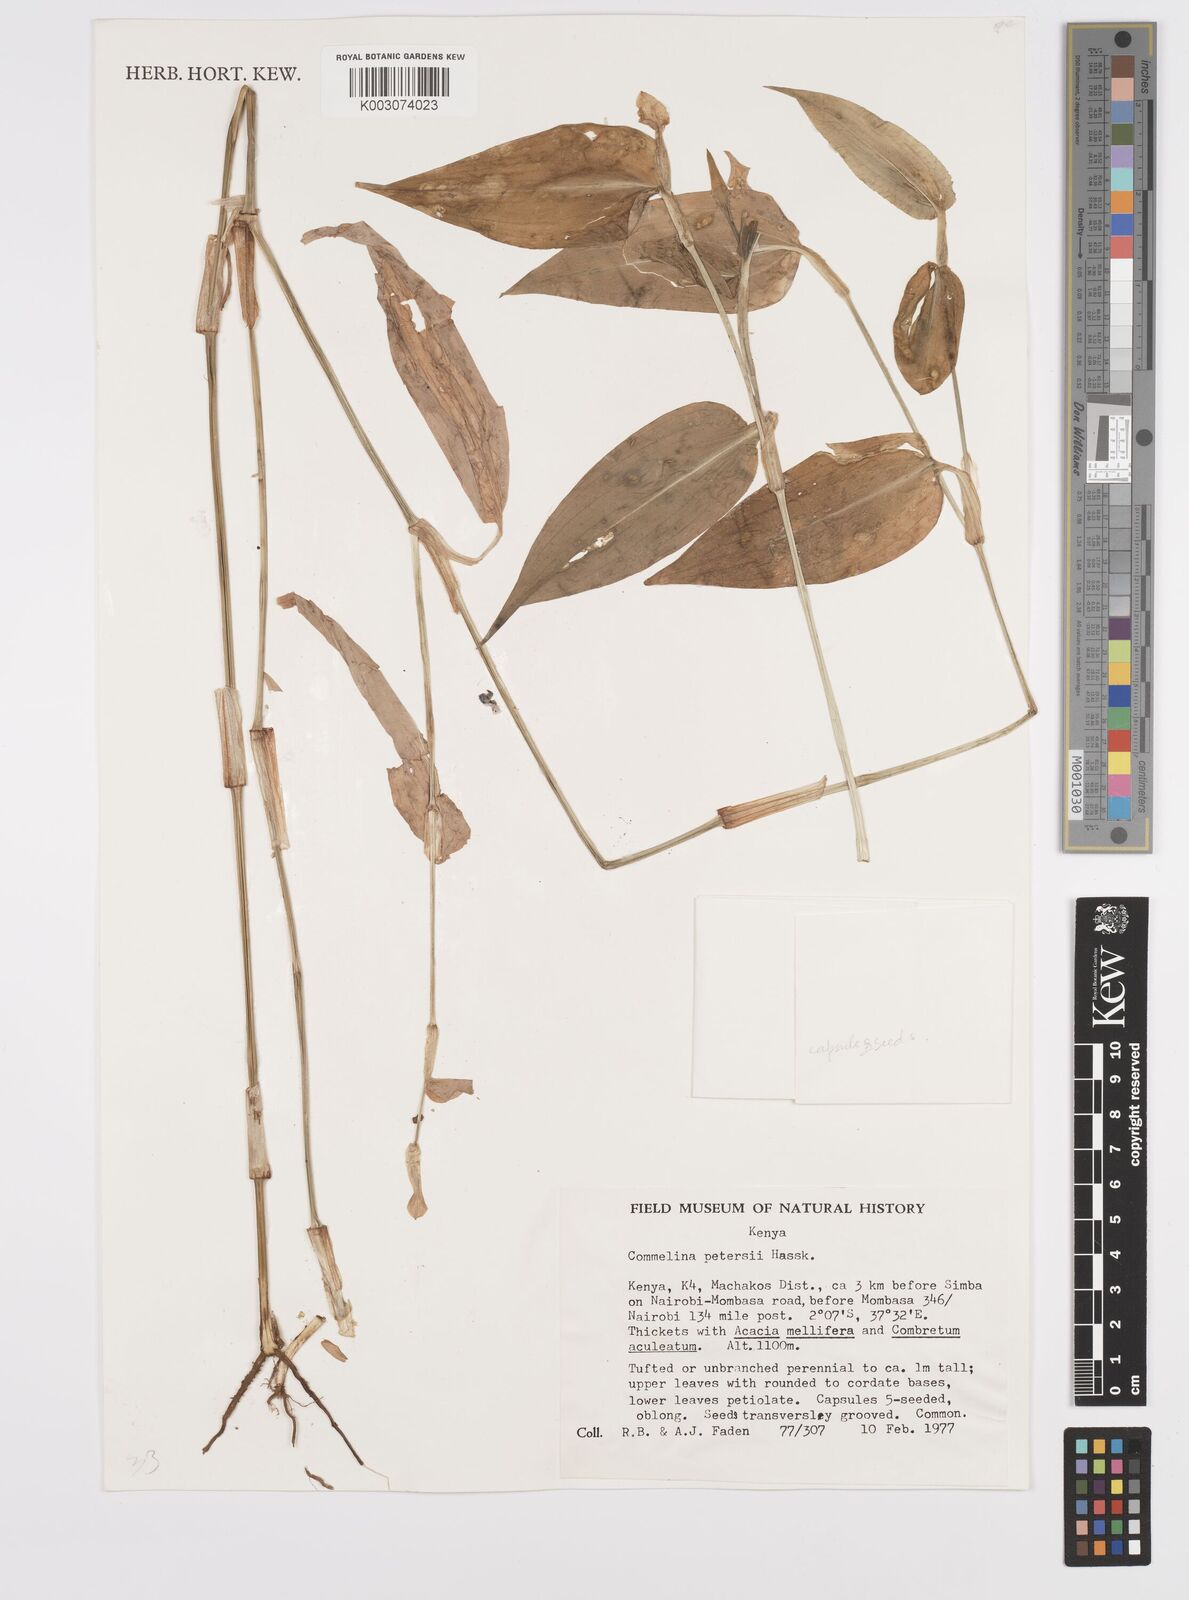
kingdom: Plantae
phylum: Tracheophyta
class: Liliopsida
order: Commelinales
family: Commelinaceae
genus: Commelina
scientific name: Commelina petersii
